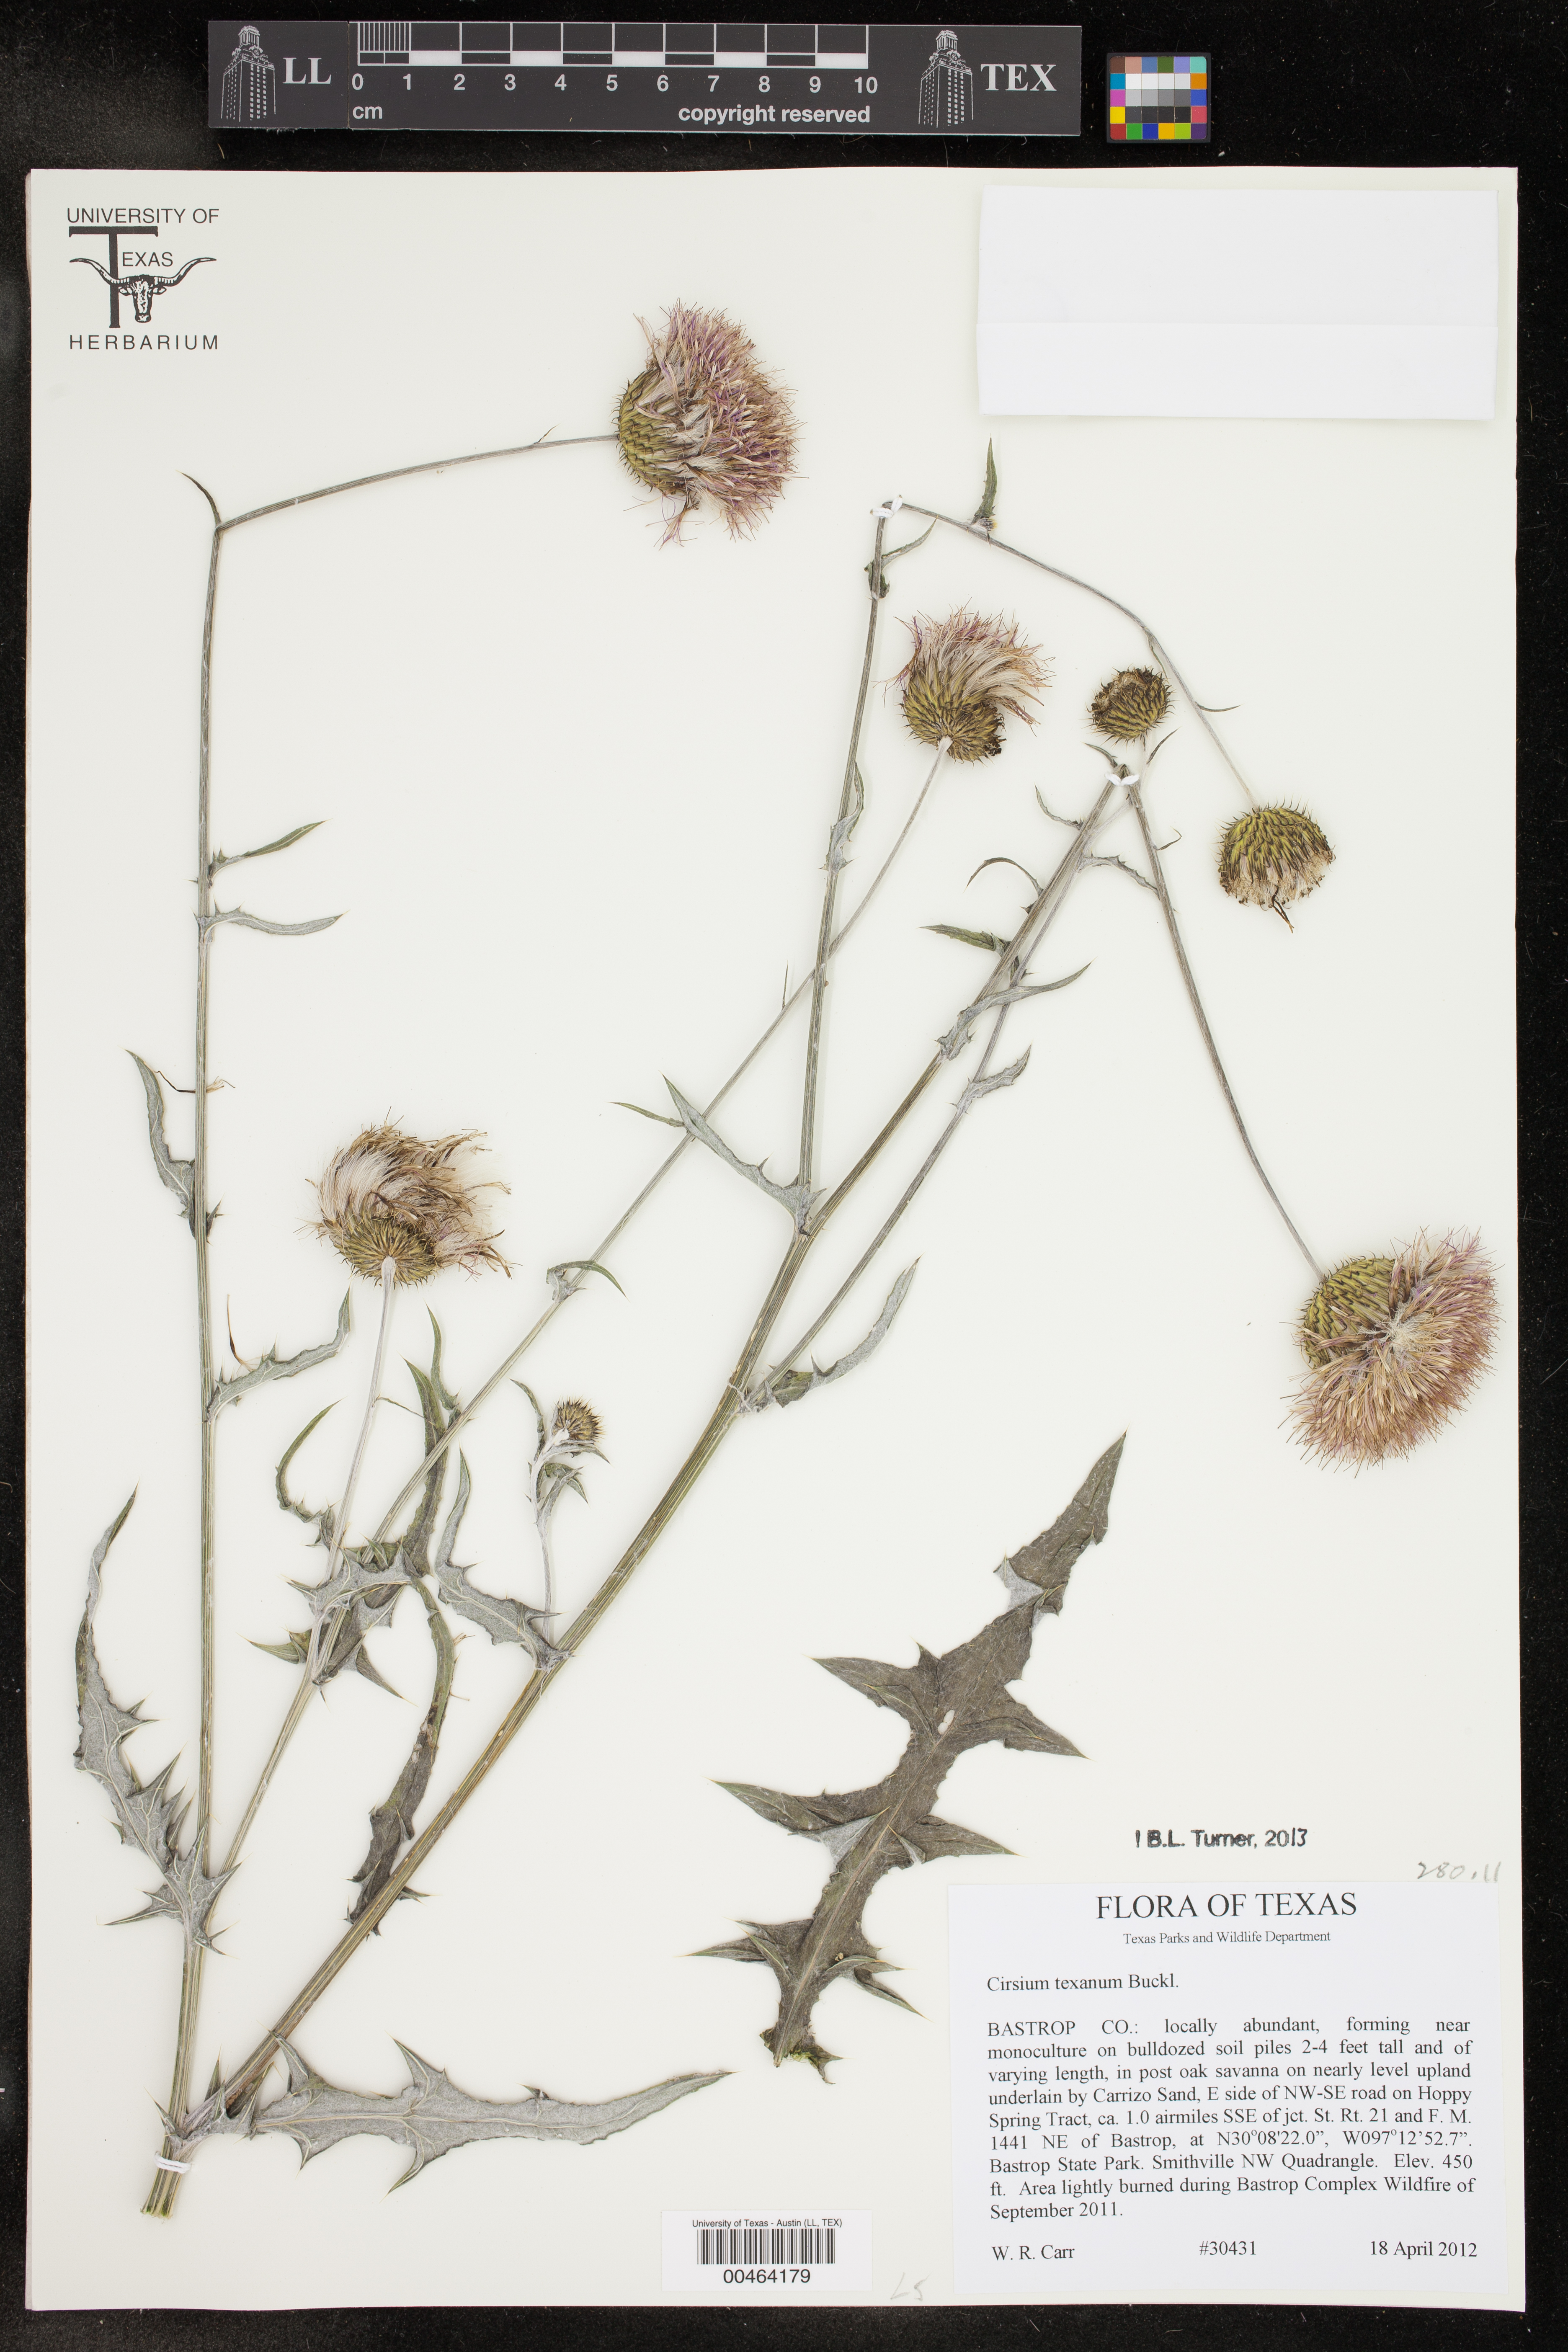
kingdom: Plantae
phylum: Tracheophyta
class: Magnoliopsida
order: Asterales
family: Asteraceae
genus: Cirsium
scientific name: Cirsium texanum
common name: Texas purple thistle
